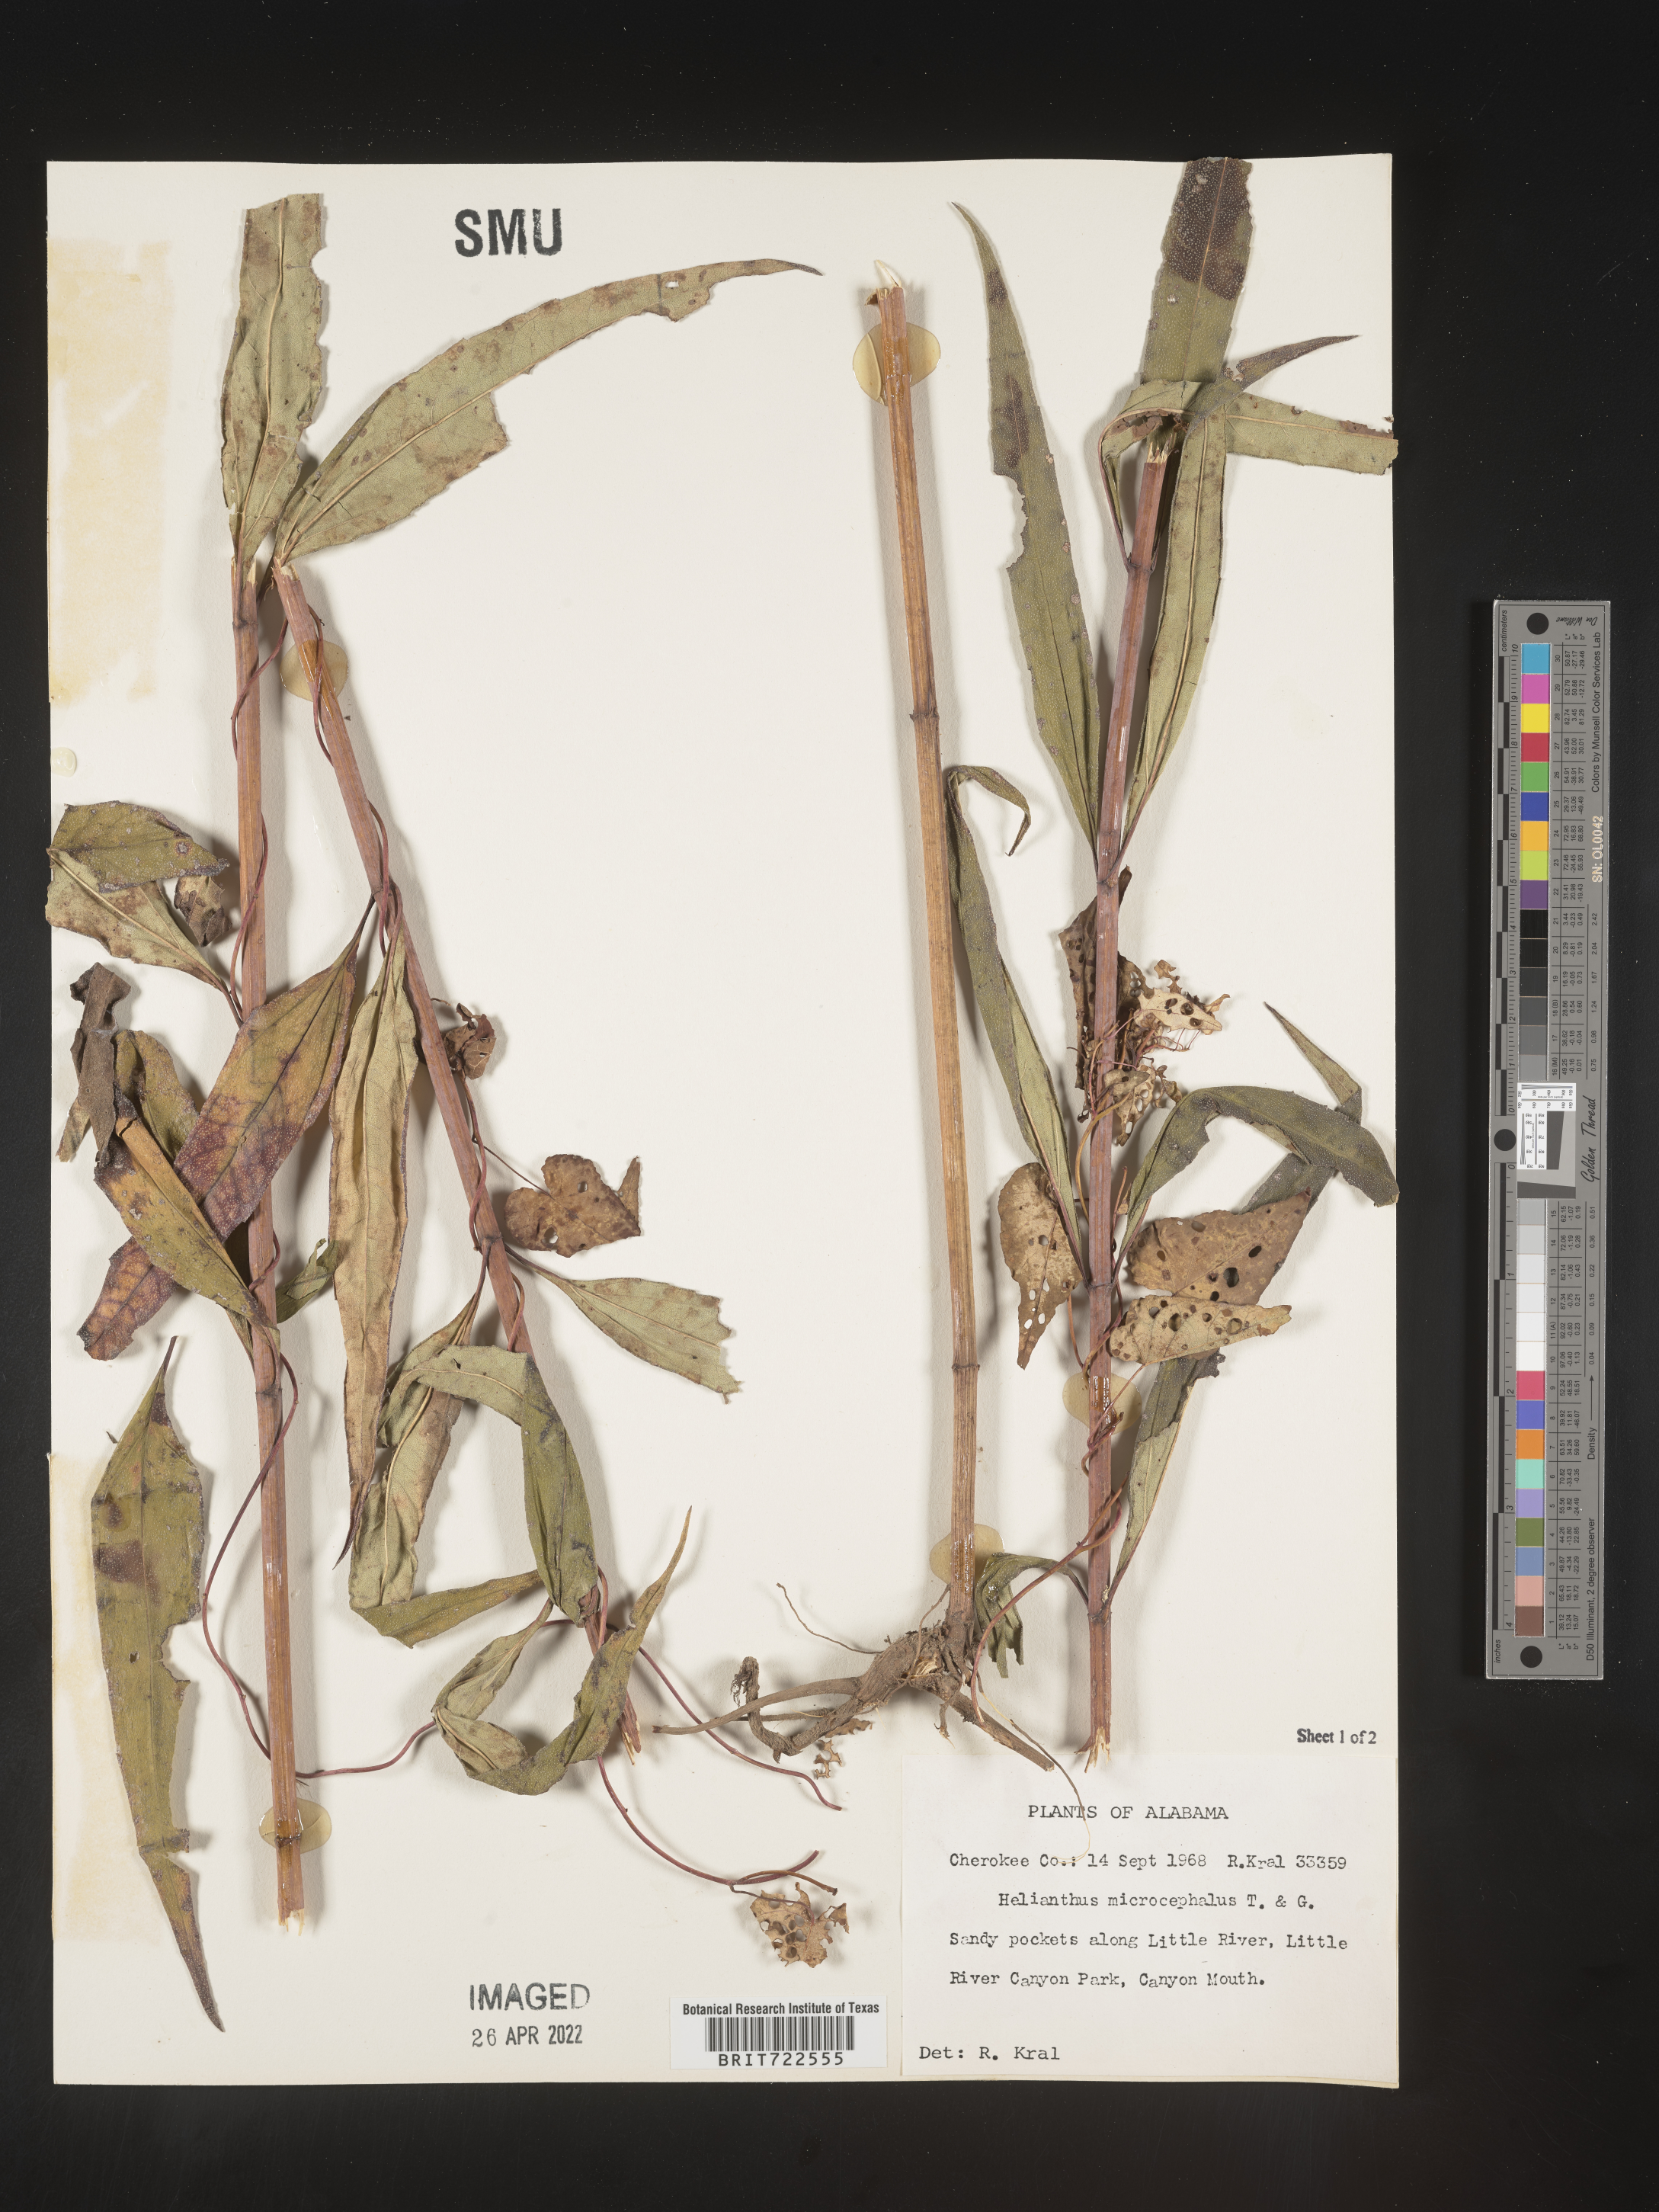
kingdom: Plantae
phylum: Tracheophyta
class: Magnoliopsida
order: Asterales
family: Asteraceae
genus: Helianthus
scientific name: Helianthus microcephalus
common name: Woodland sunflower
